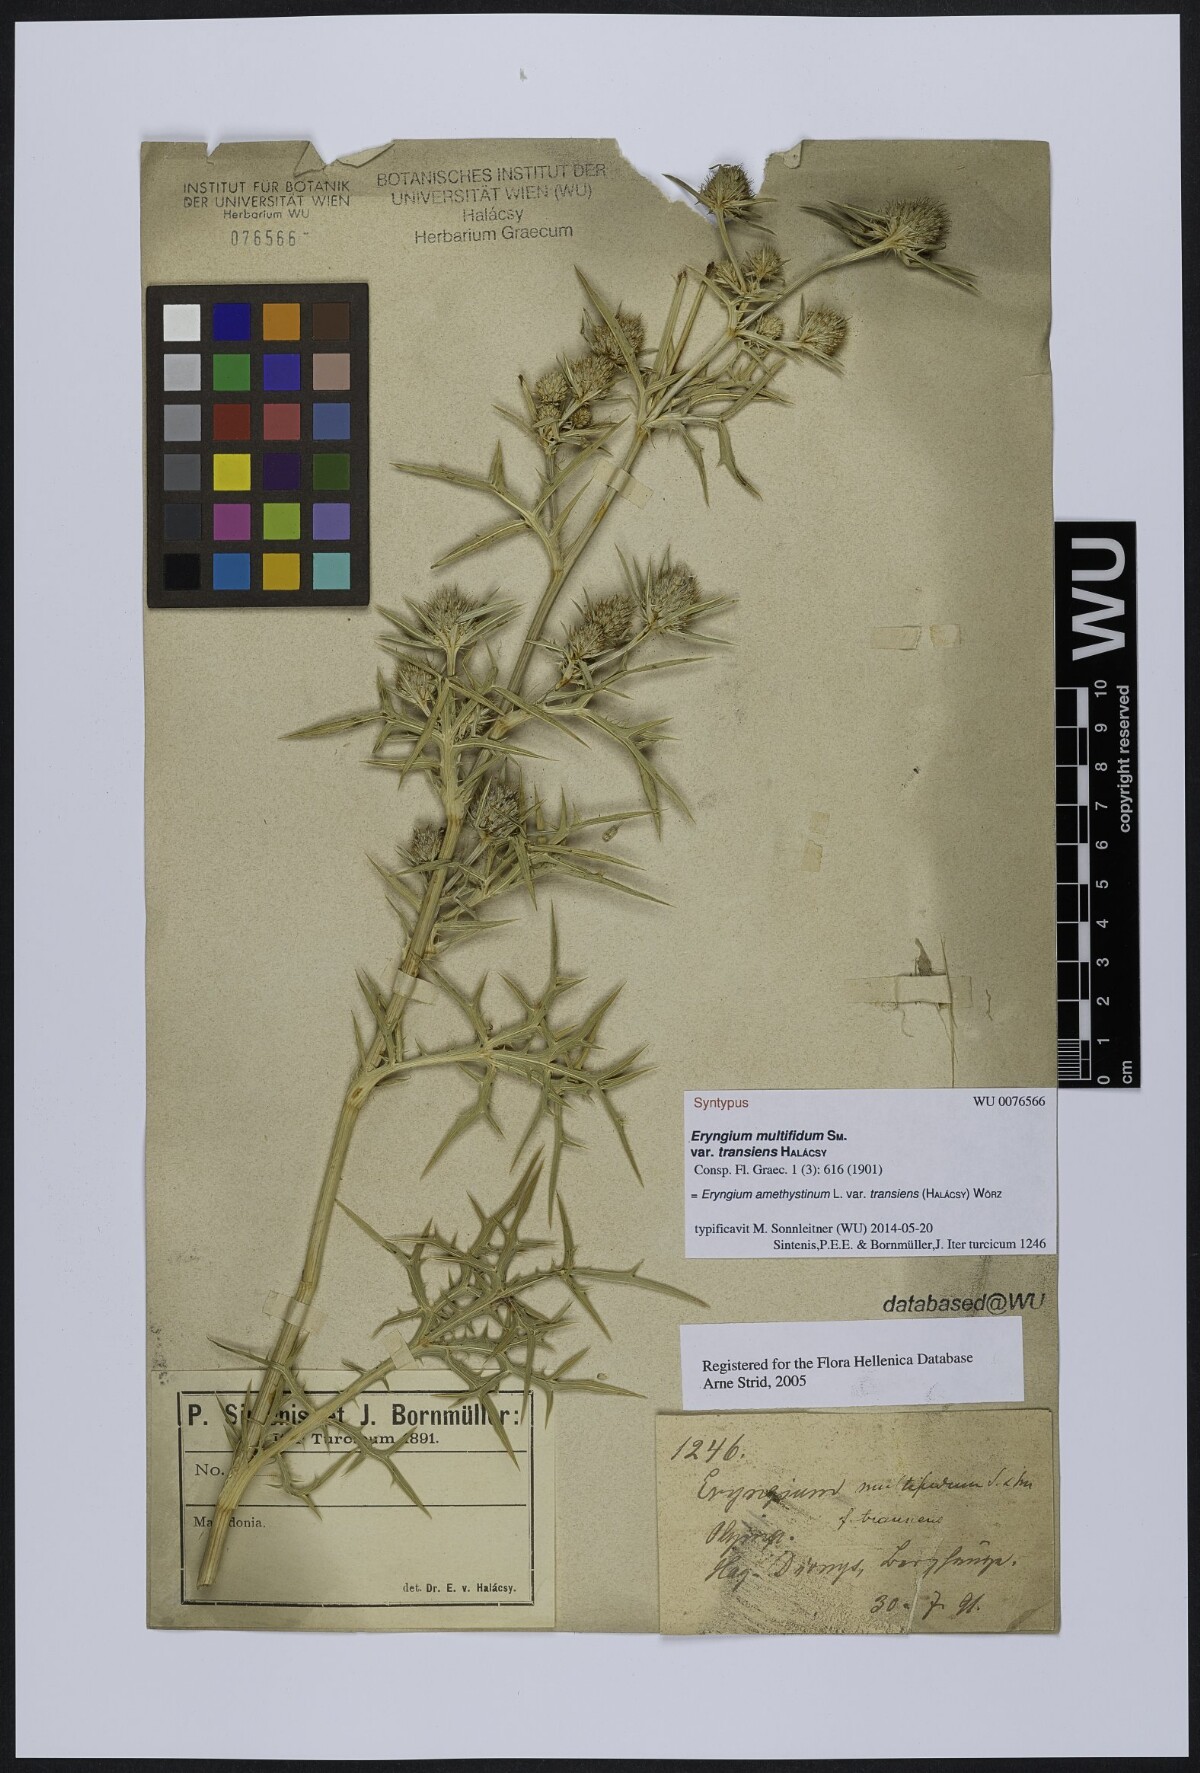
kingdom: Plantae
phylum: Tracheophyta
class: Magnoliopsida
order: Apiales
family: Apiaceae
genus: Eryngium
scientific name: Eryngium amethystinum
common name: Amethyst eryngo
